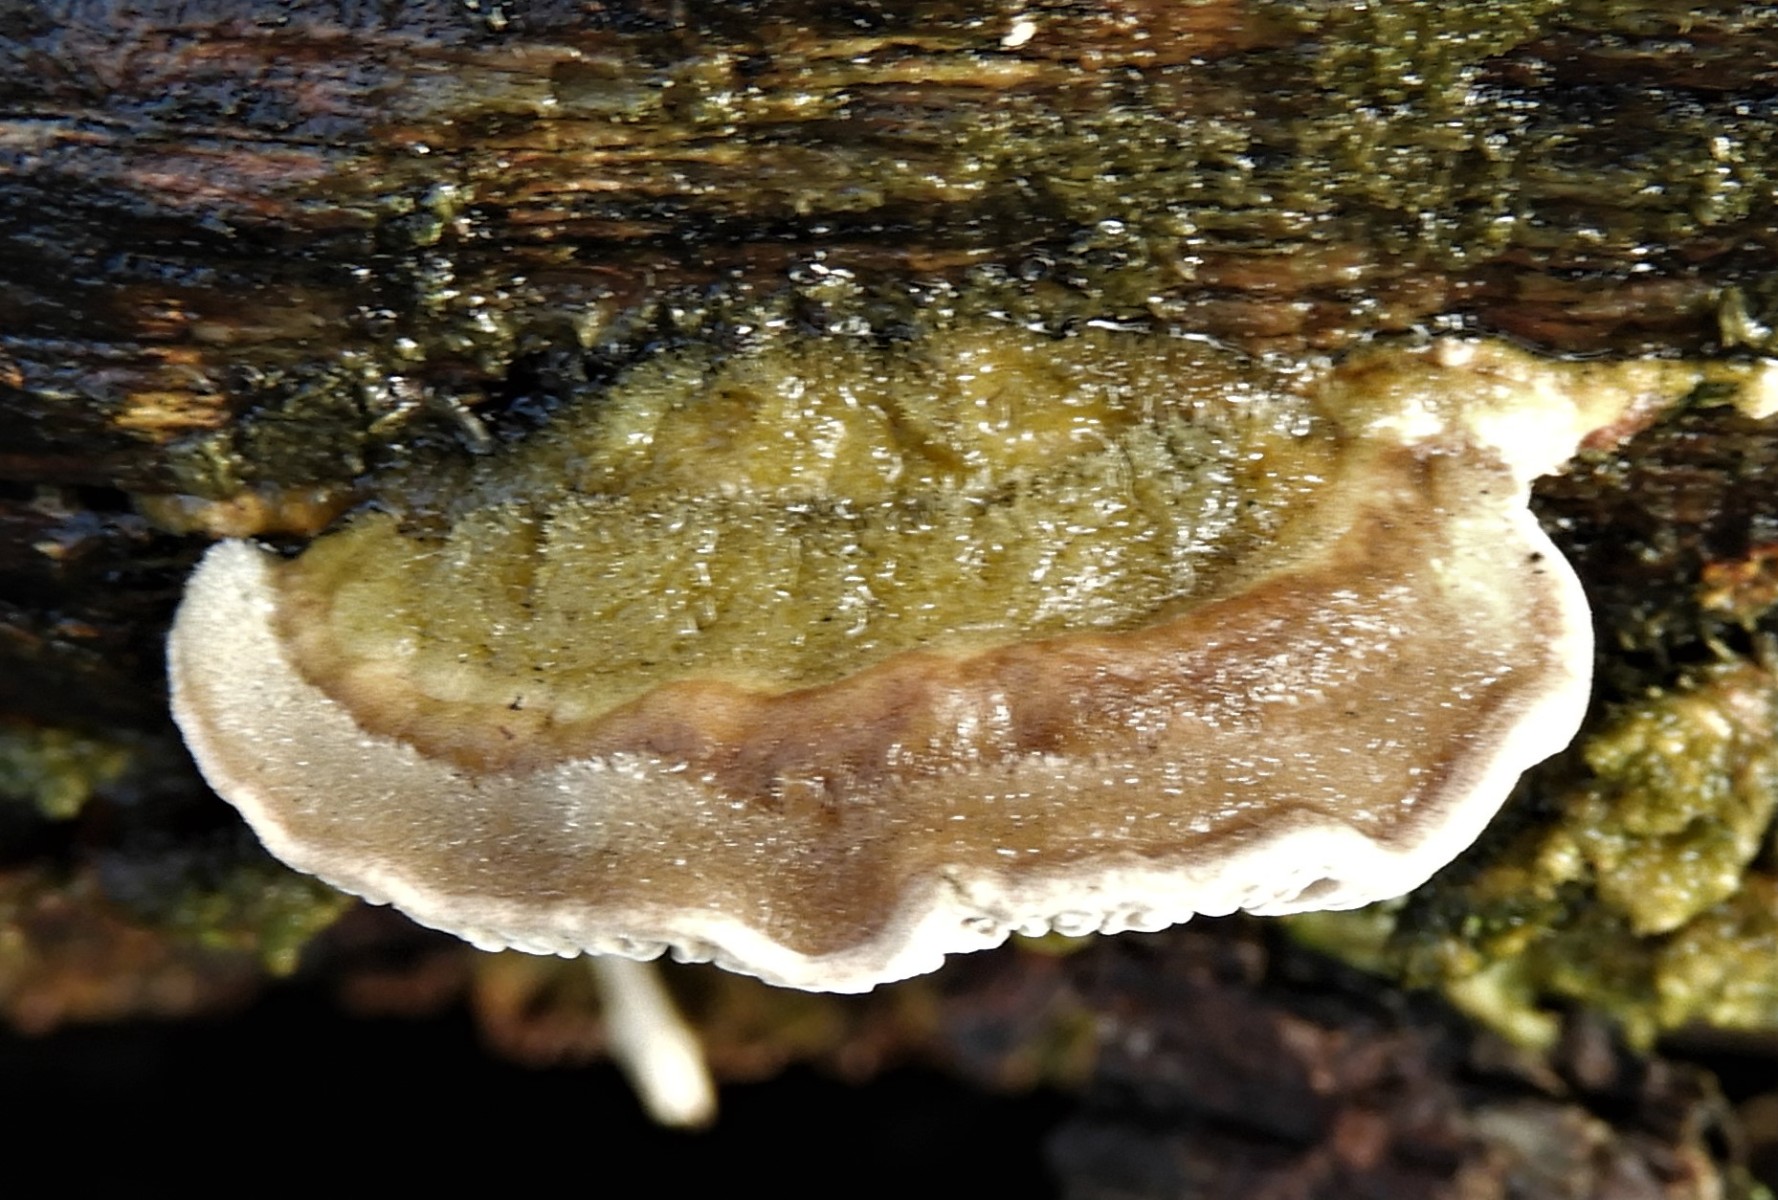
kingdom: Fungi
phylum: Basidiomycota
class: Agaricomycetes
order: Polyporales
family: Polyporaceae
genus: Lenzites
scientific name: Lenzites betulinus
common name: birke-læderporesvamp
